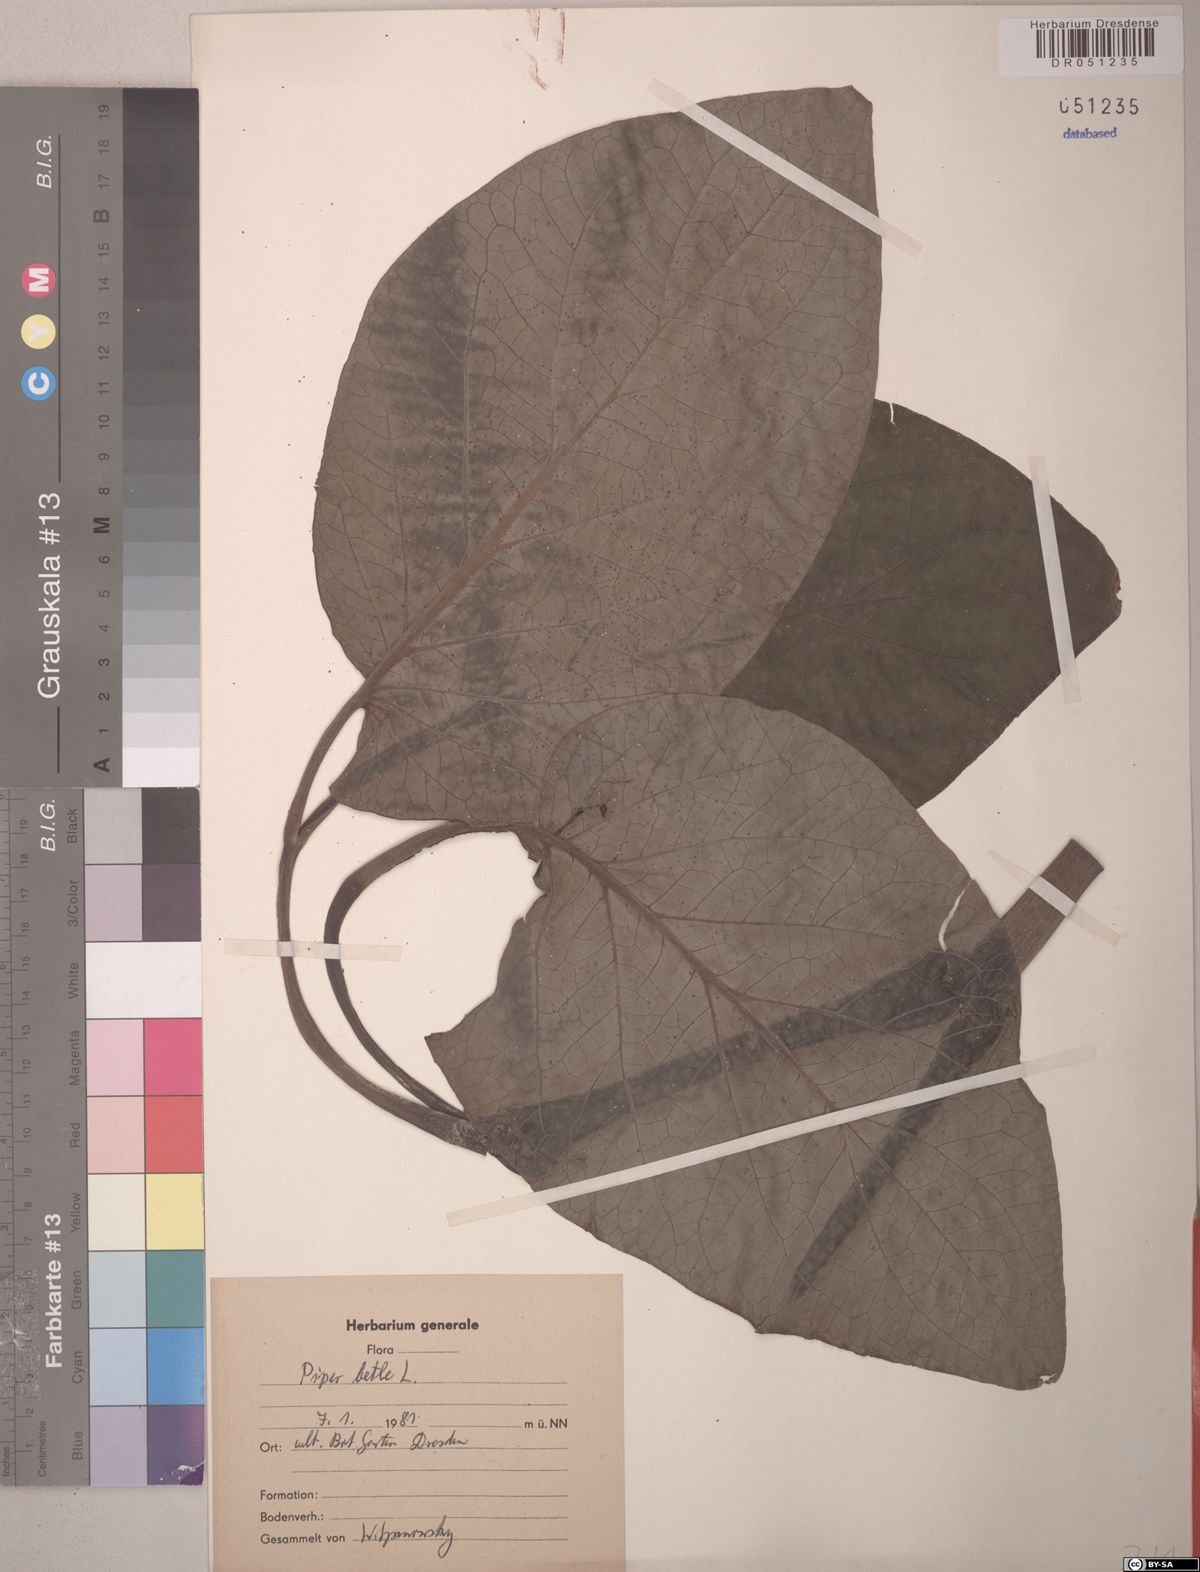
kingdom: Plantae
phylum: Tracheophyta
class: Magnoliopsida
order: Piperales
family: Piperaceae
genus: Piper
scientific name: Piper betle
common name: Betel pepper
